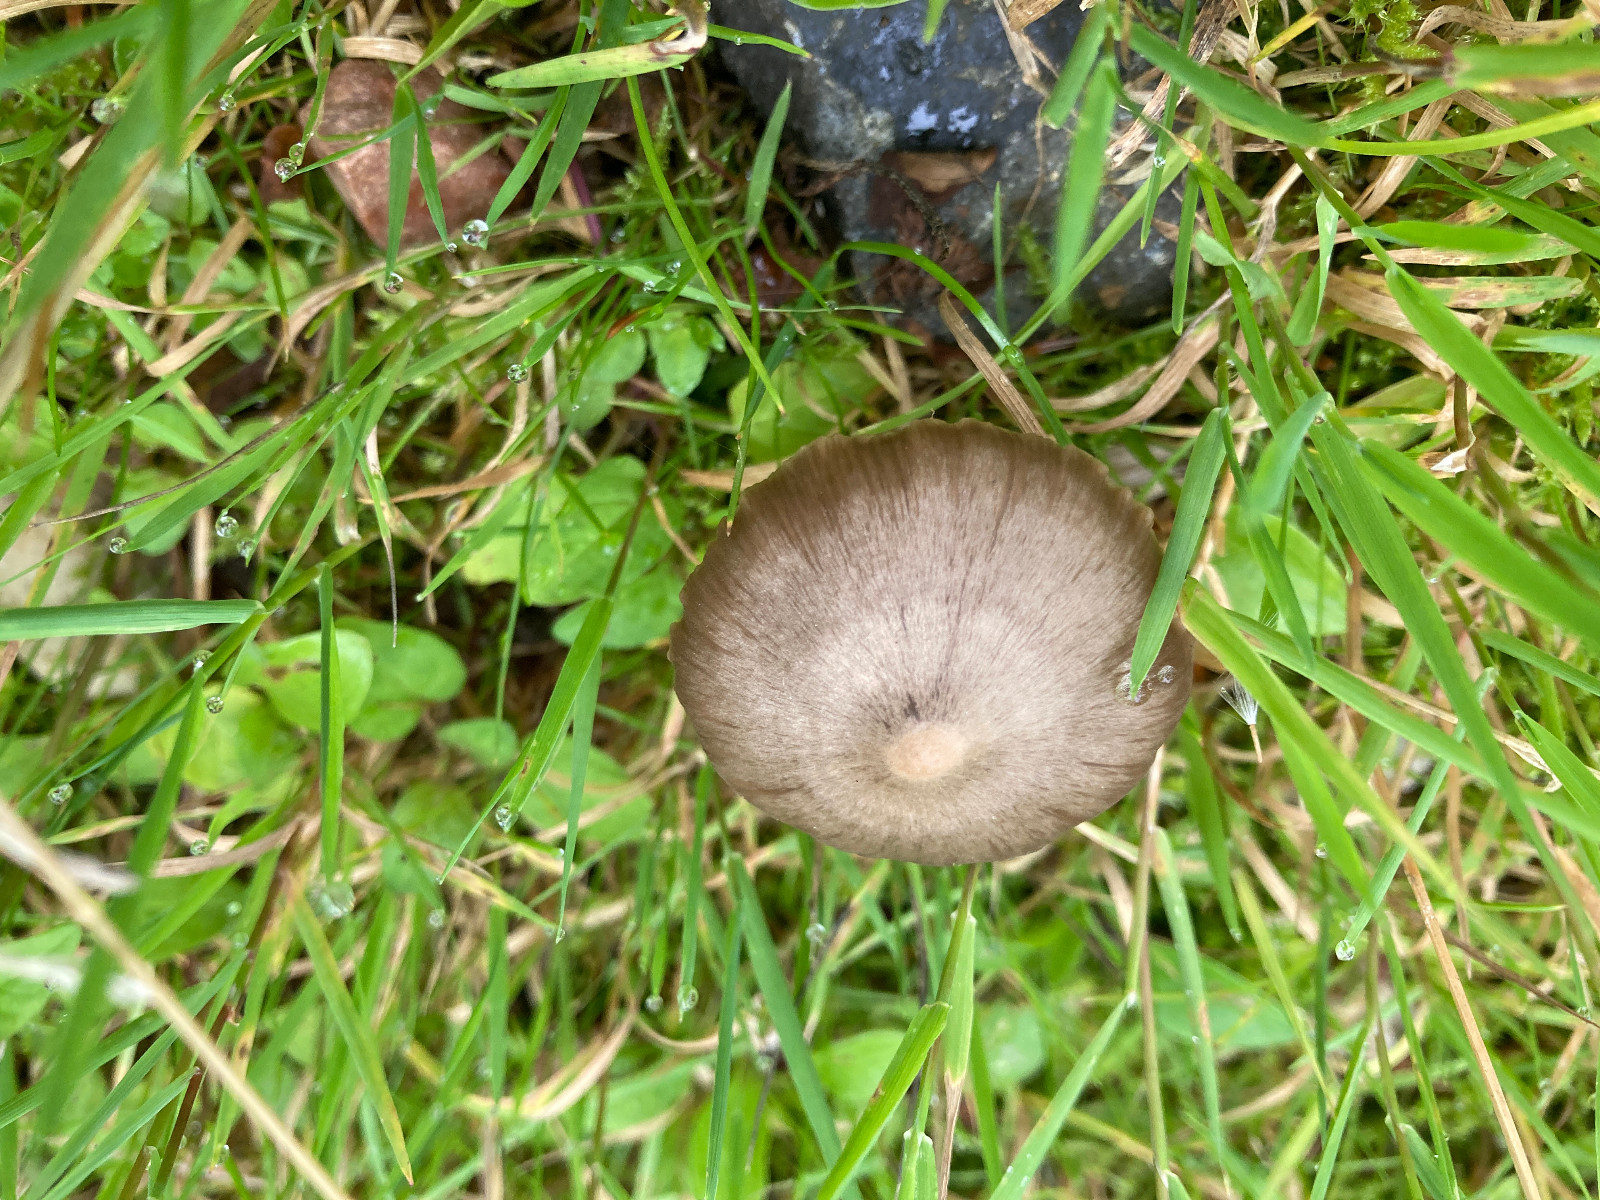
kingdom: Fungi
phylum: Basidiomycota
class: Agaricomycetes
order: Agaricales
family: Entolomataceae
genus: Entoloma
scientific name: Entoloma sericeum
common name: silkeglinsende rødblad
